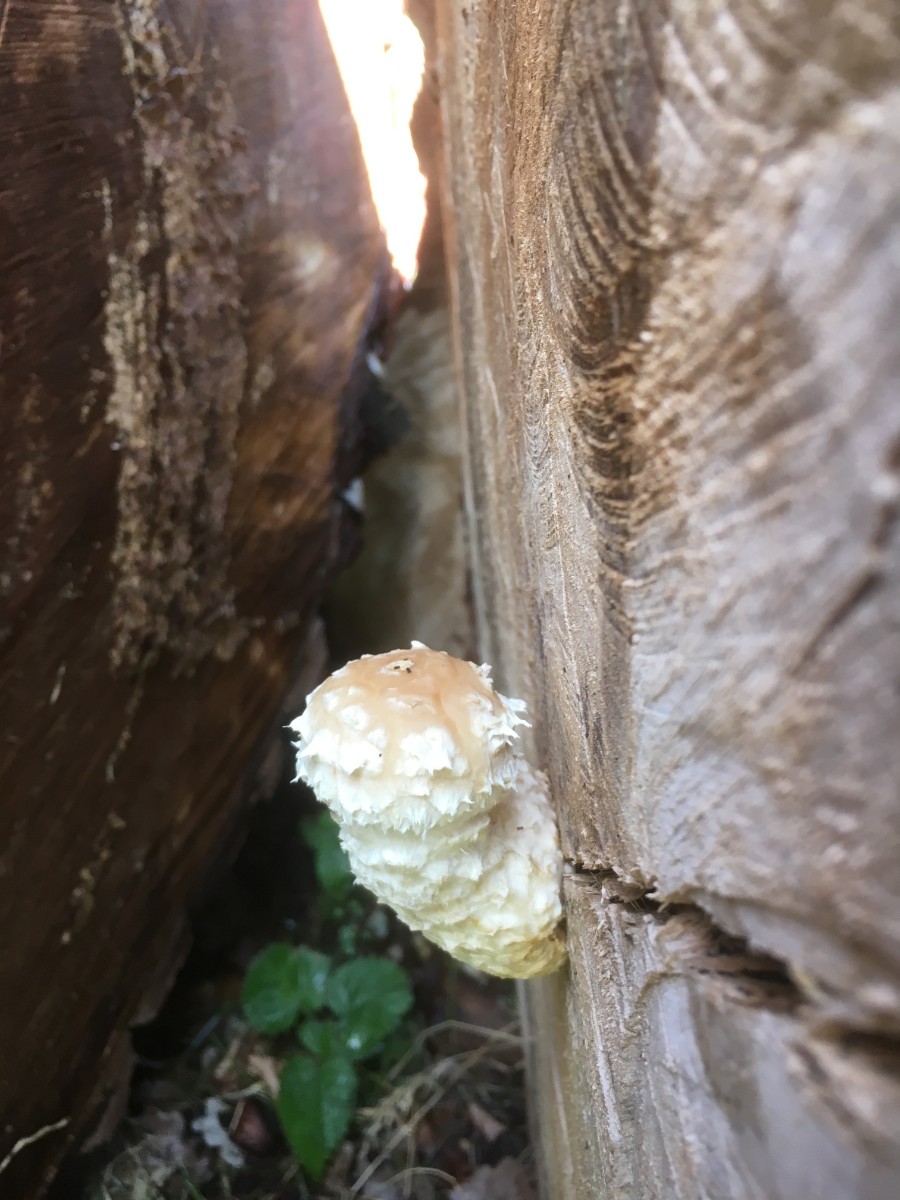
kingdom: Fungi
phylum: Basidiomycota
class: Agaricomycetes
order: Agaricales
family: Strophariaceae
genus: Pholiota
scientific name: Pholiota populnea
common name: poppel-kæmpeskælhat
